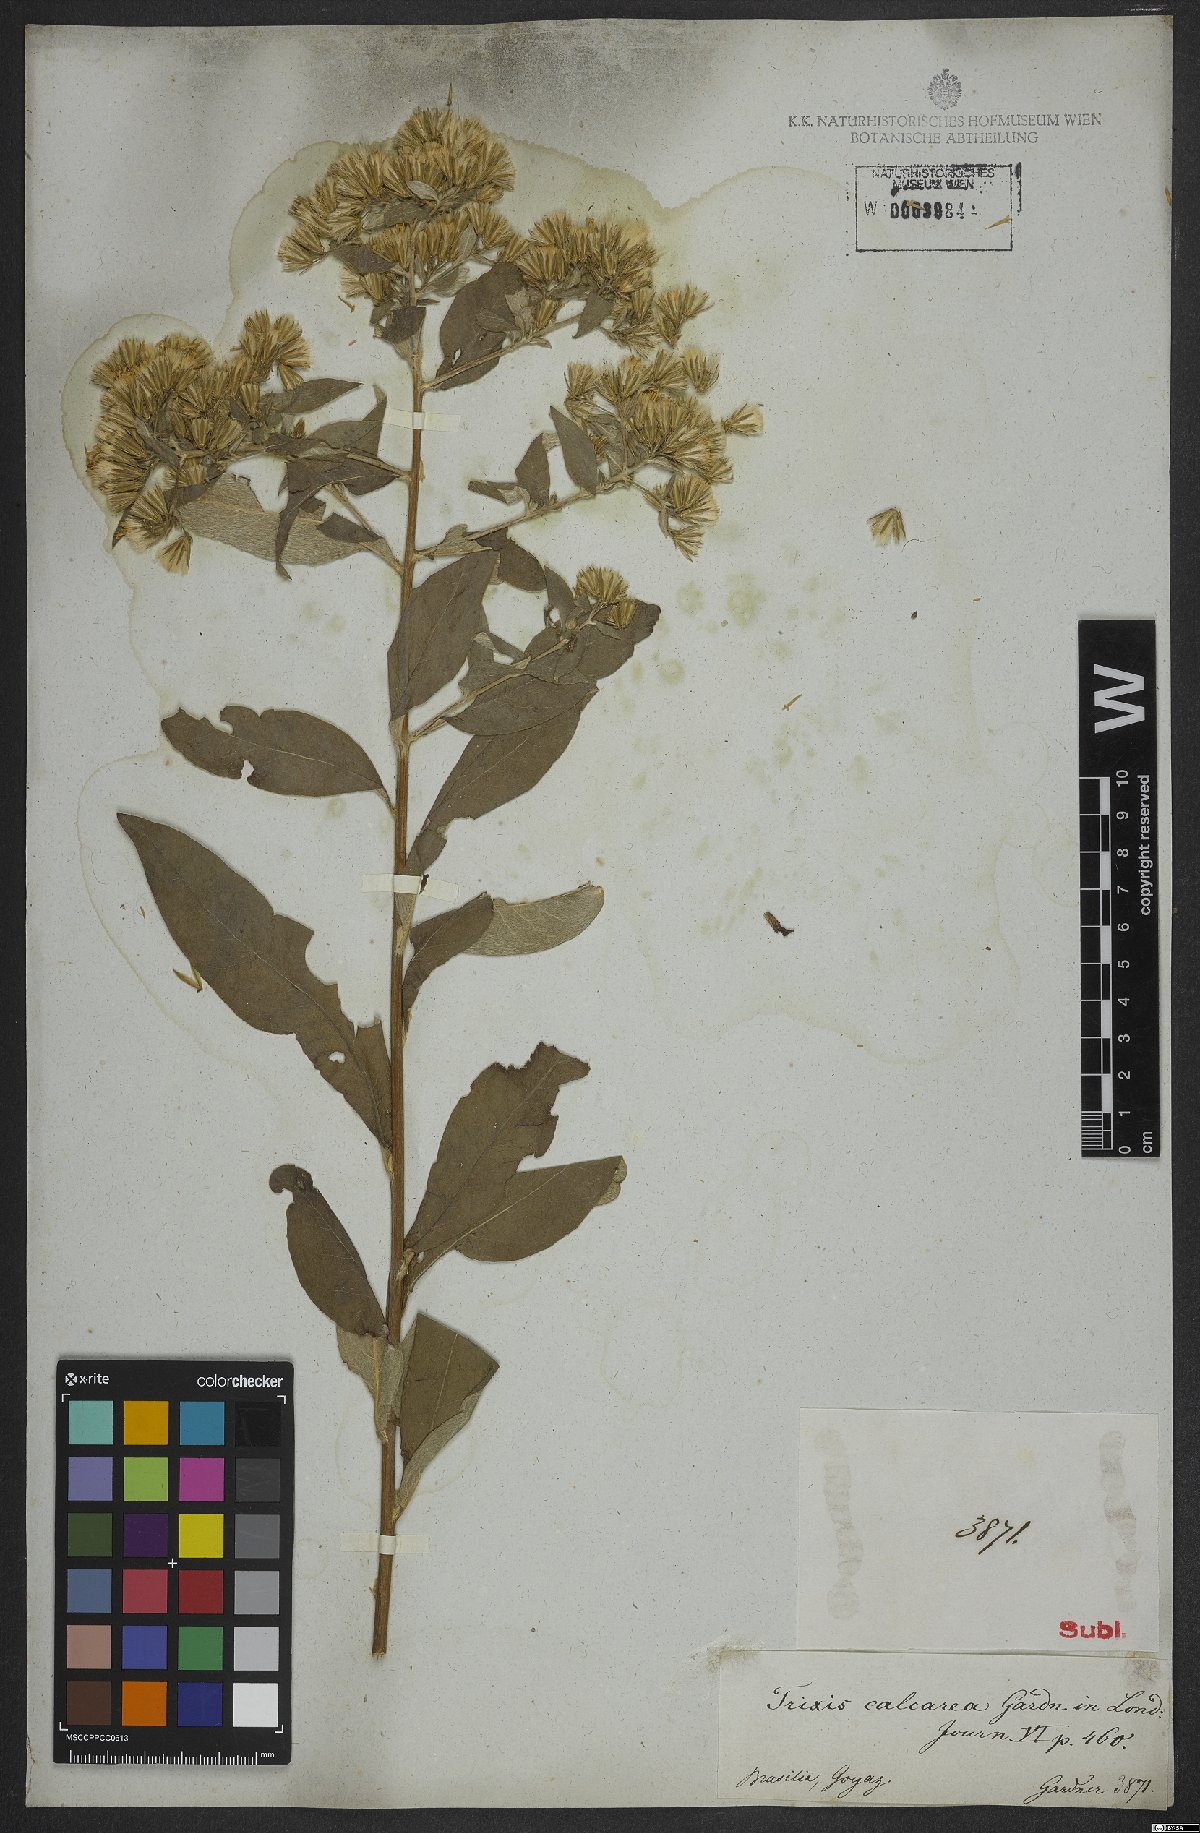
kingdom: Plantae
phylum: Tracheophyta
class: Magnoliopsida
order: Asterales
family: Asteraceae
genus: Trixis
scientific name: Trixis divaricata
